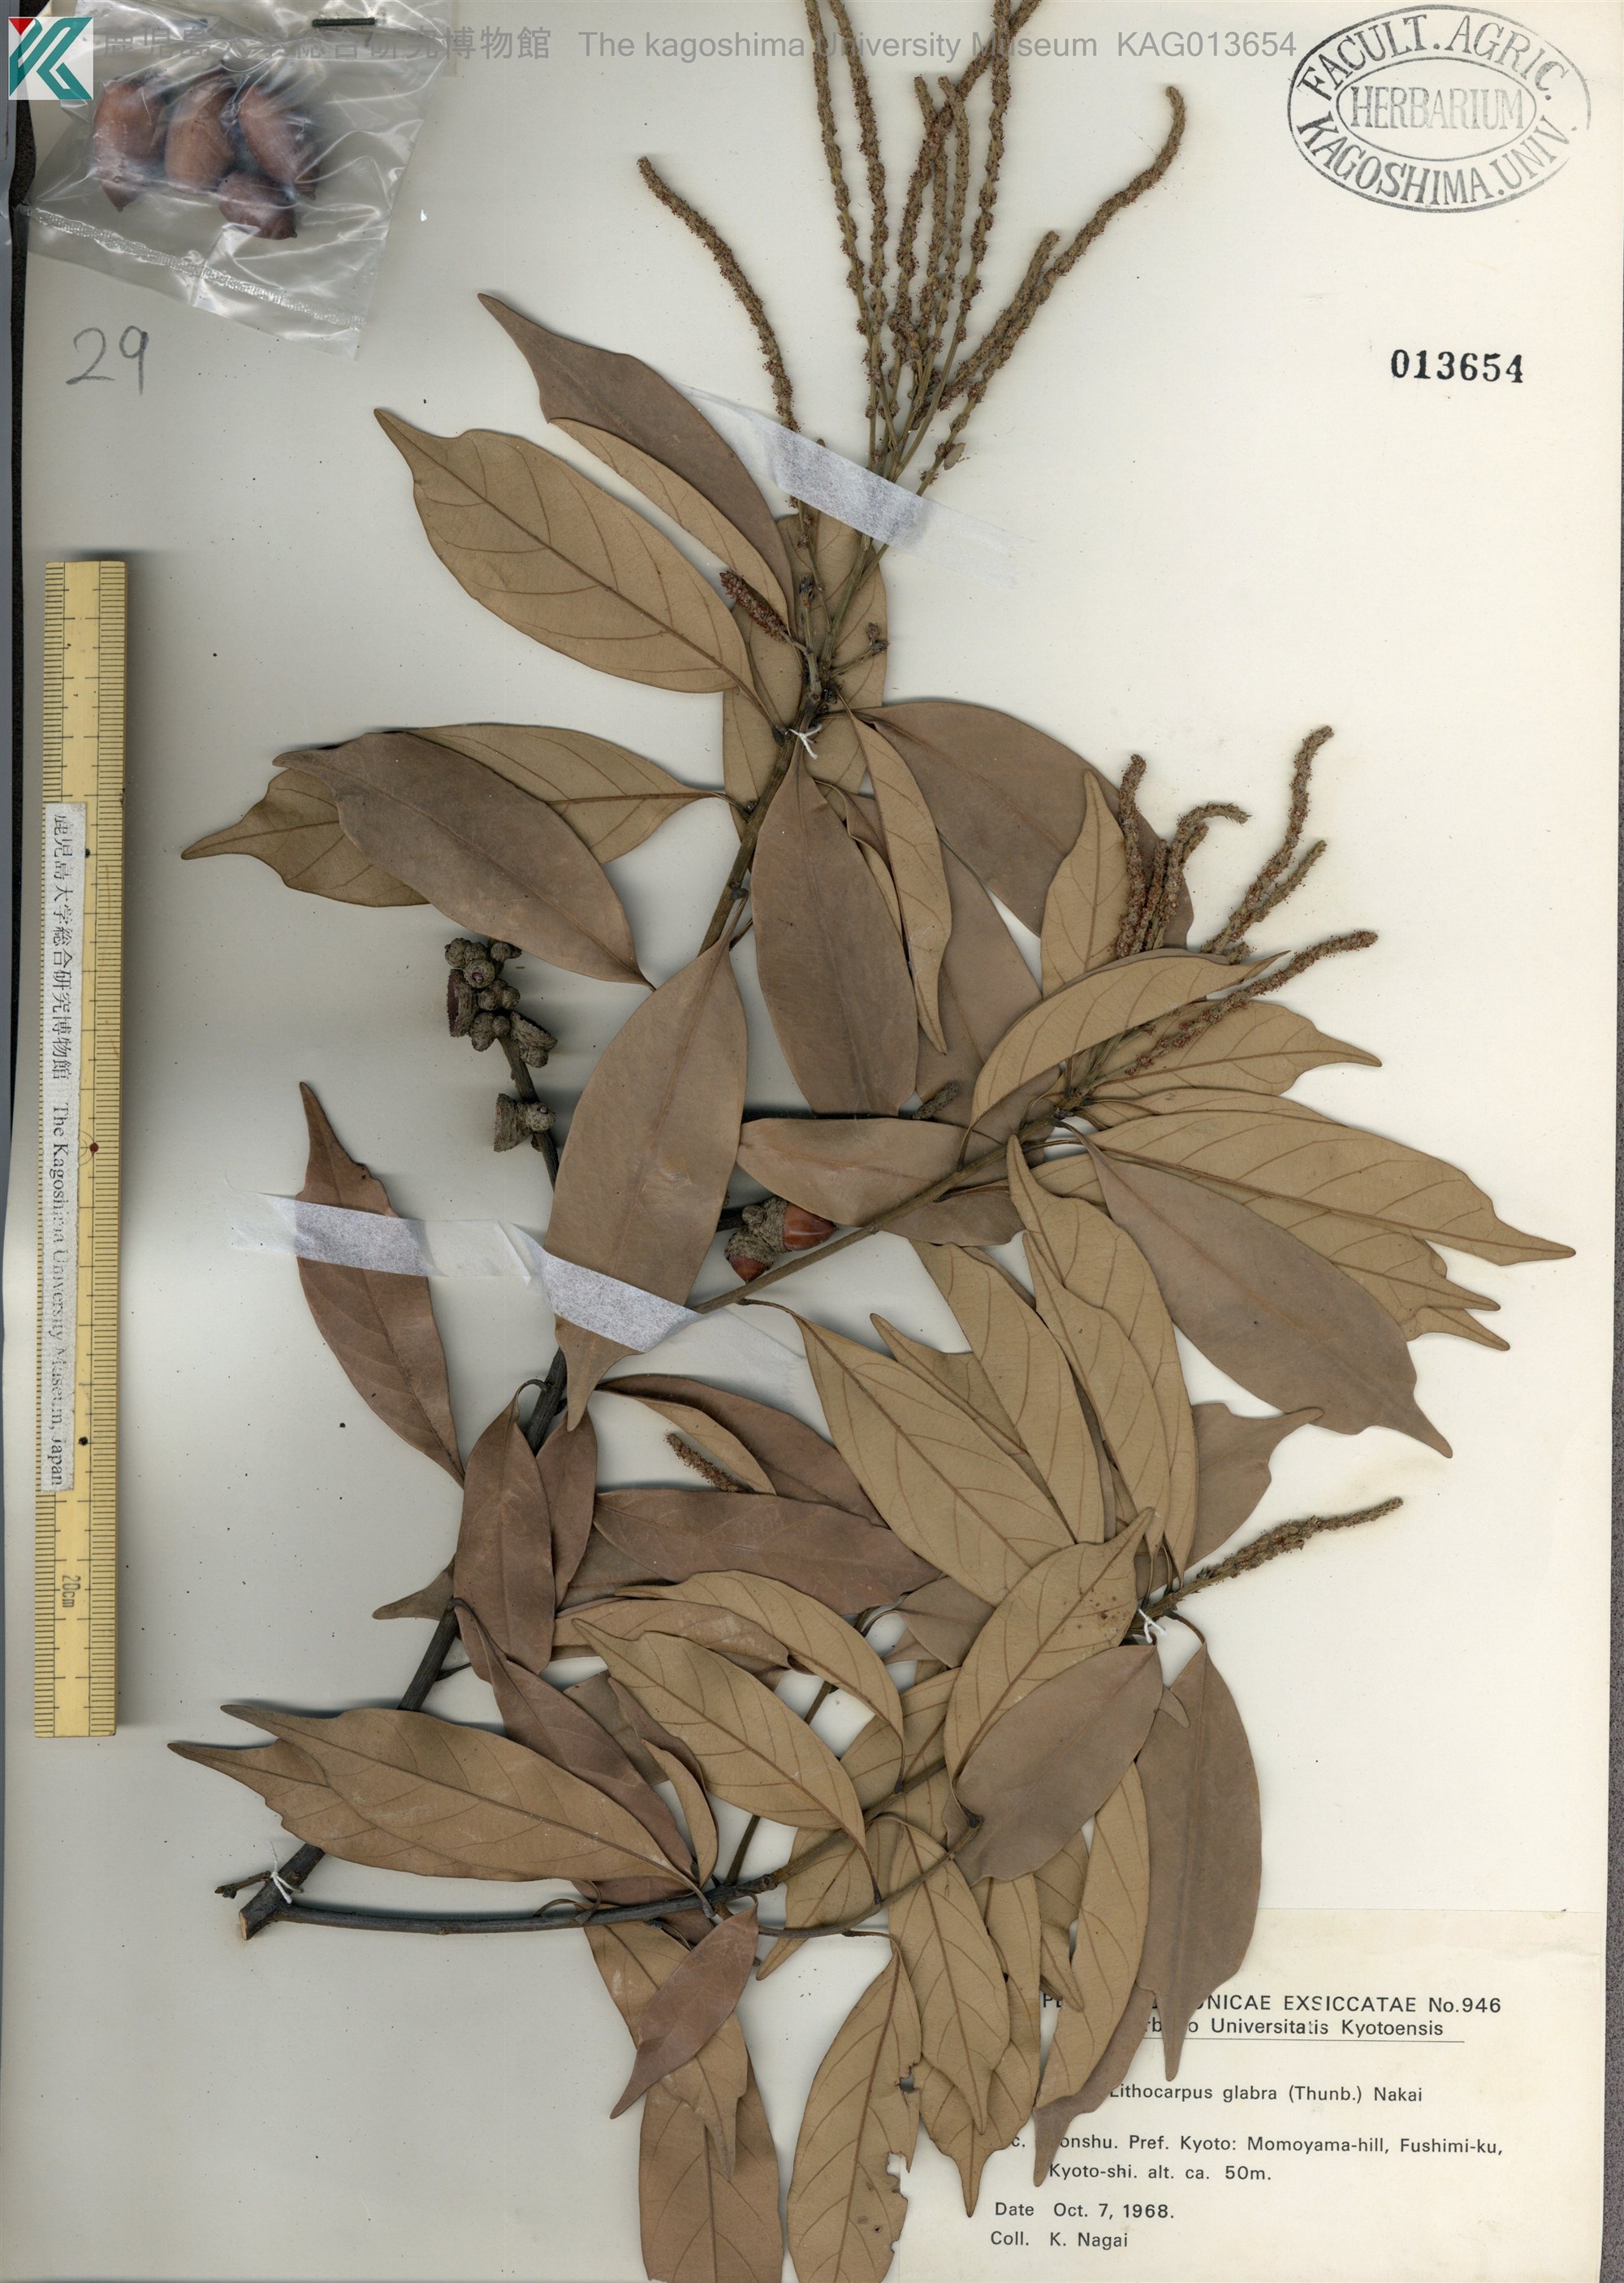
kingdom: Plantae
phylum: Tracheophyta
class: Magnoliopsida
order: Fagales
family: Fagaceae
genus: Lithocarpus
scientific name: Lithocarpus glaber
